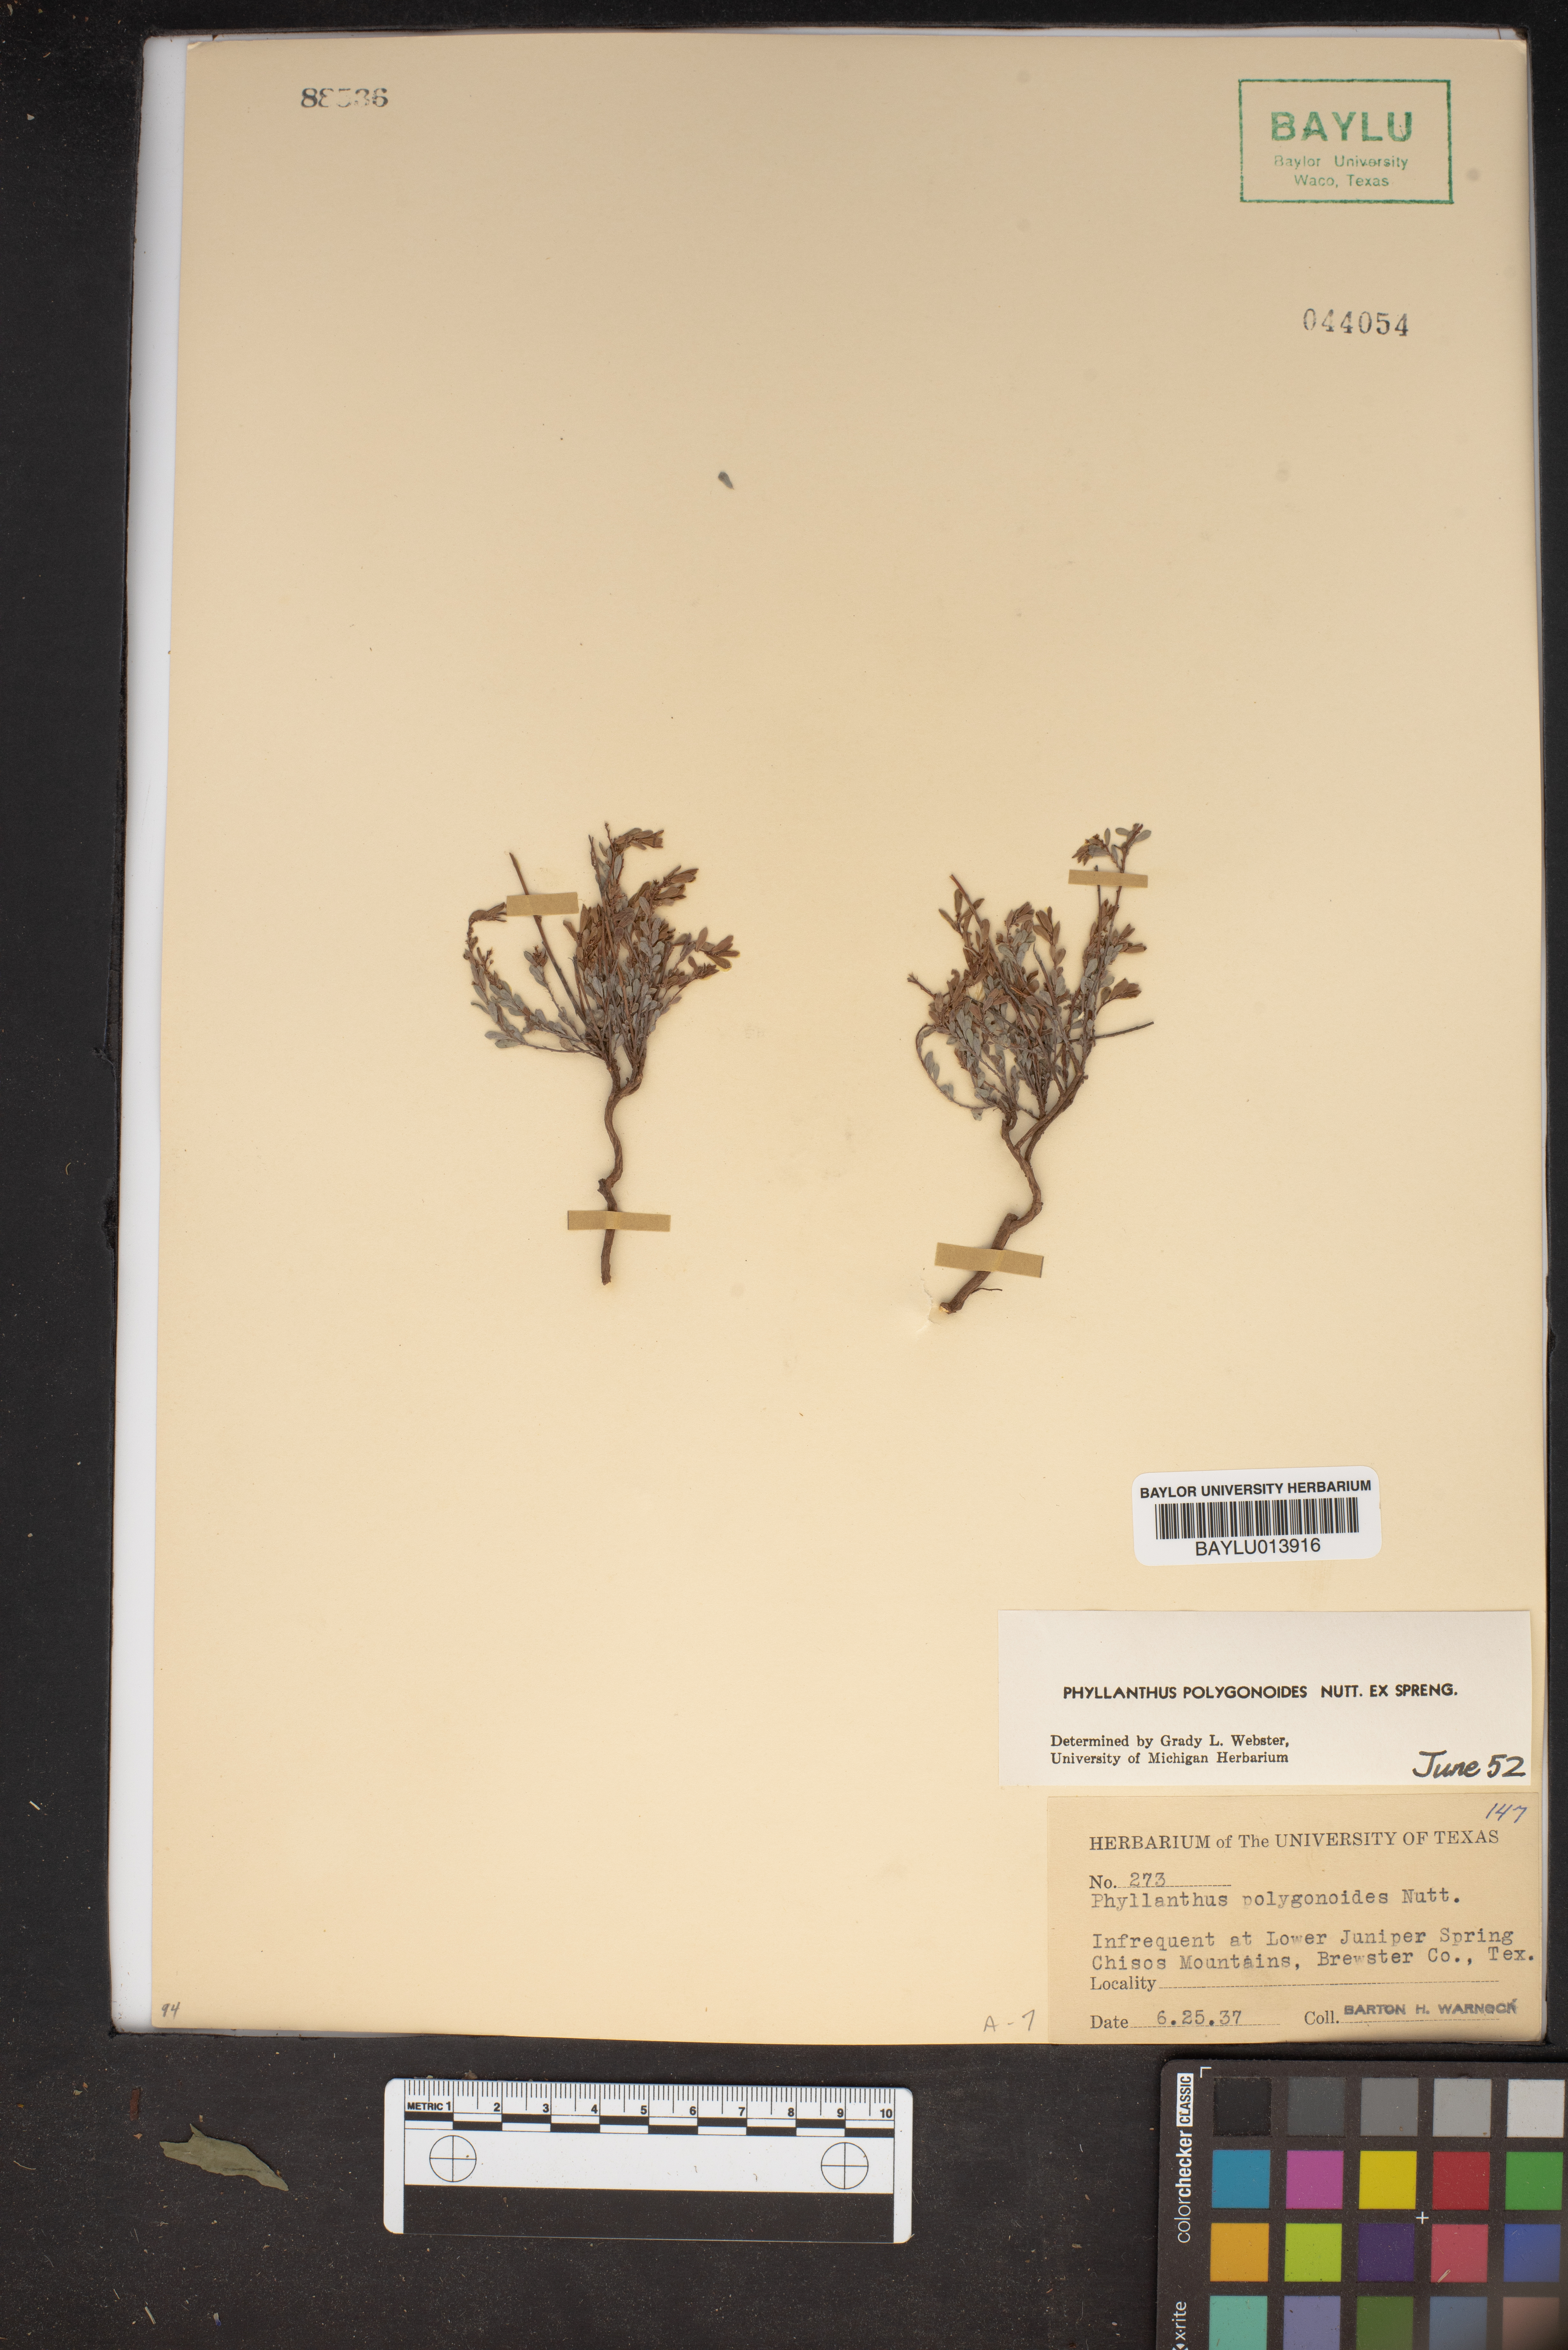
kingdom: Plantae
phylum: Tracheophyta
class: Magnoliopsida
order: Malpighiales
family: Phyllanthaceae
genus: Phyllanthus
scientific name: Phyllanthus polygonoides
